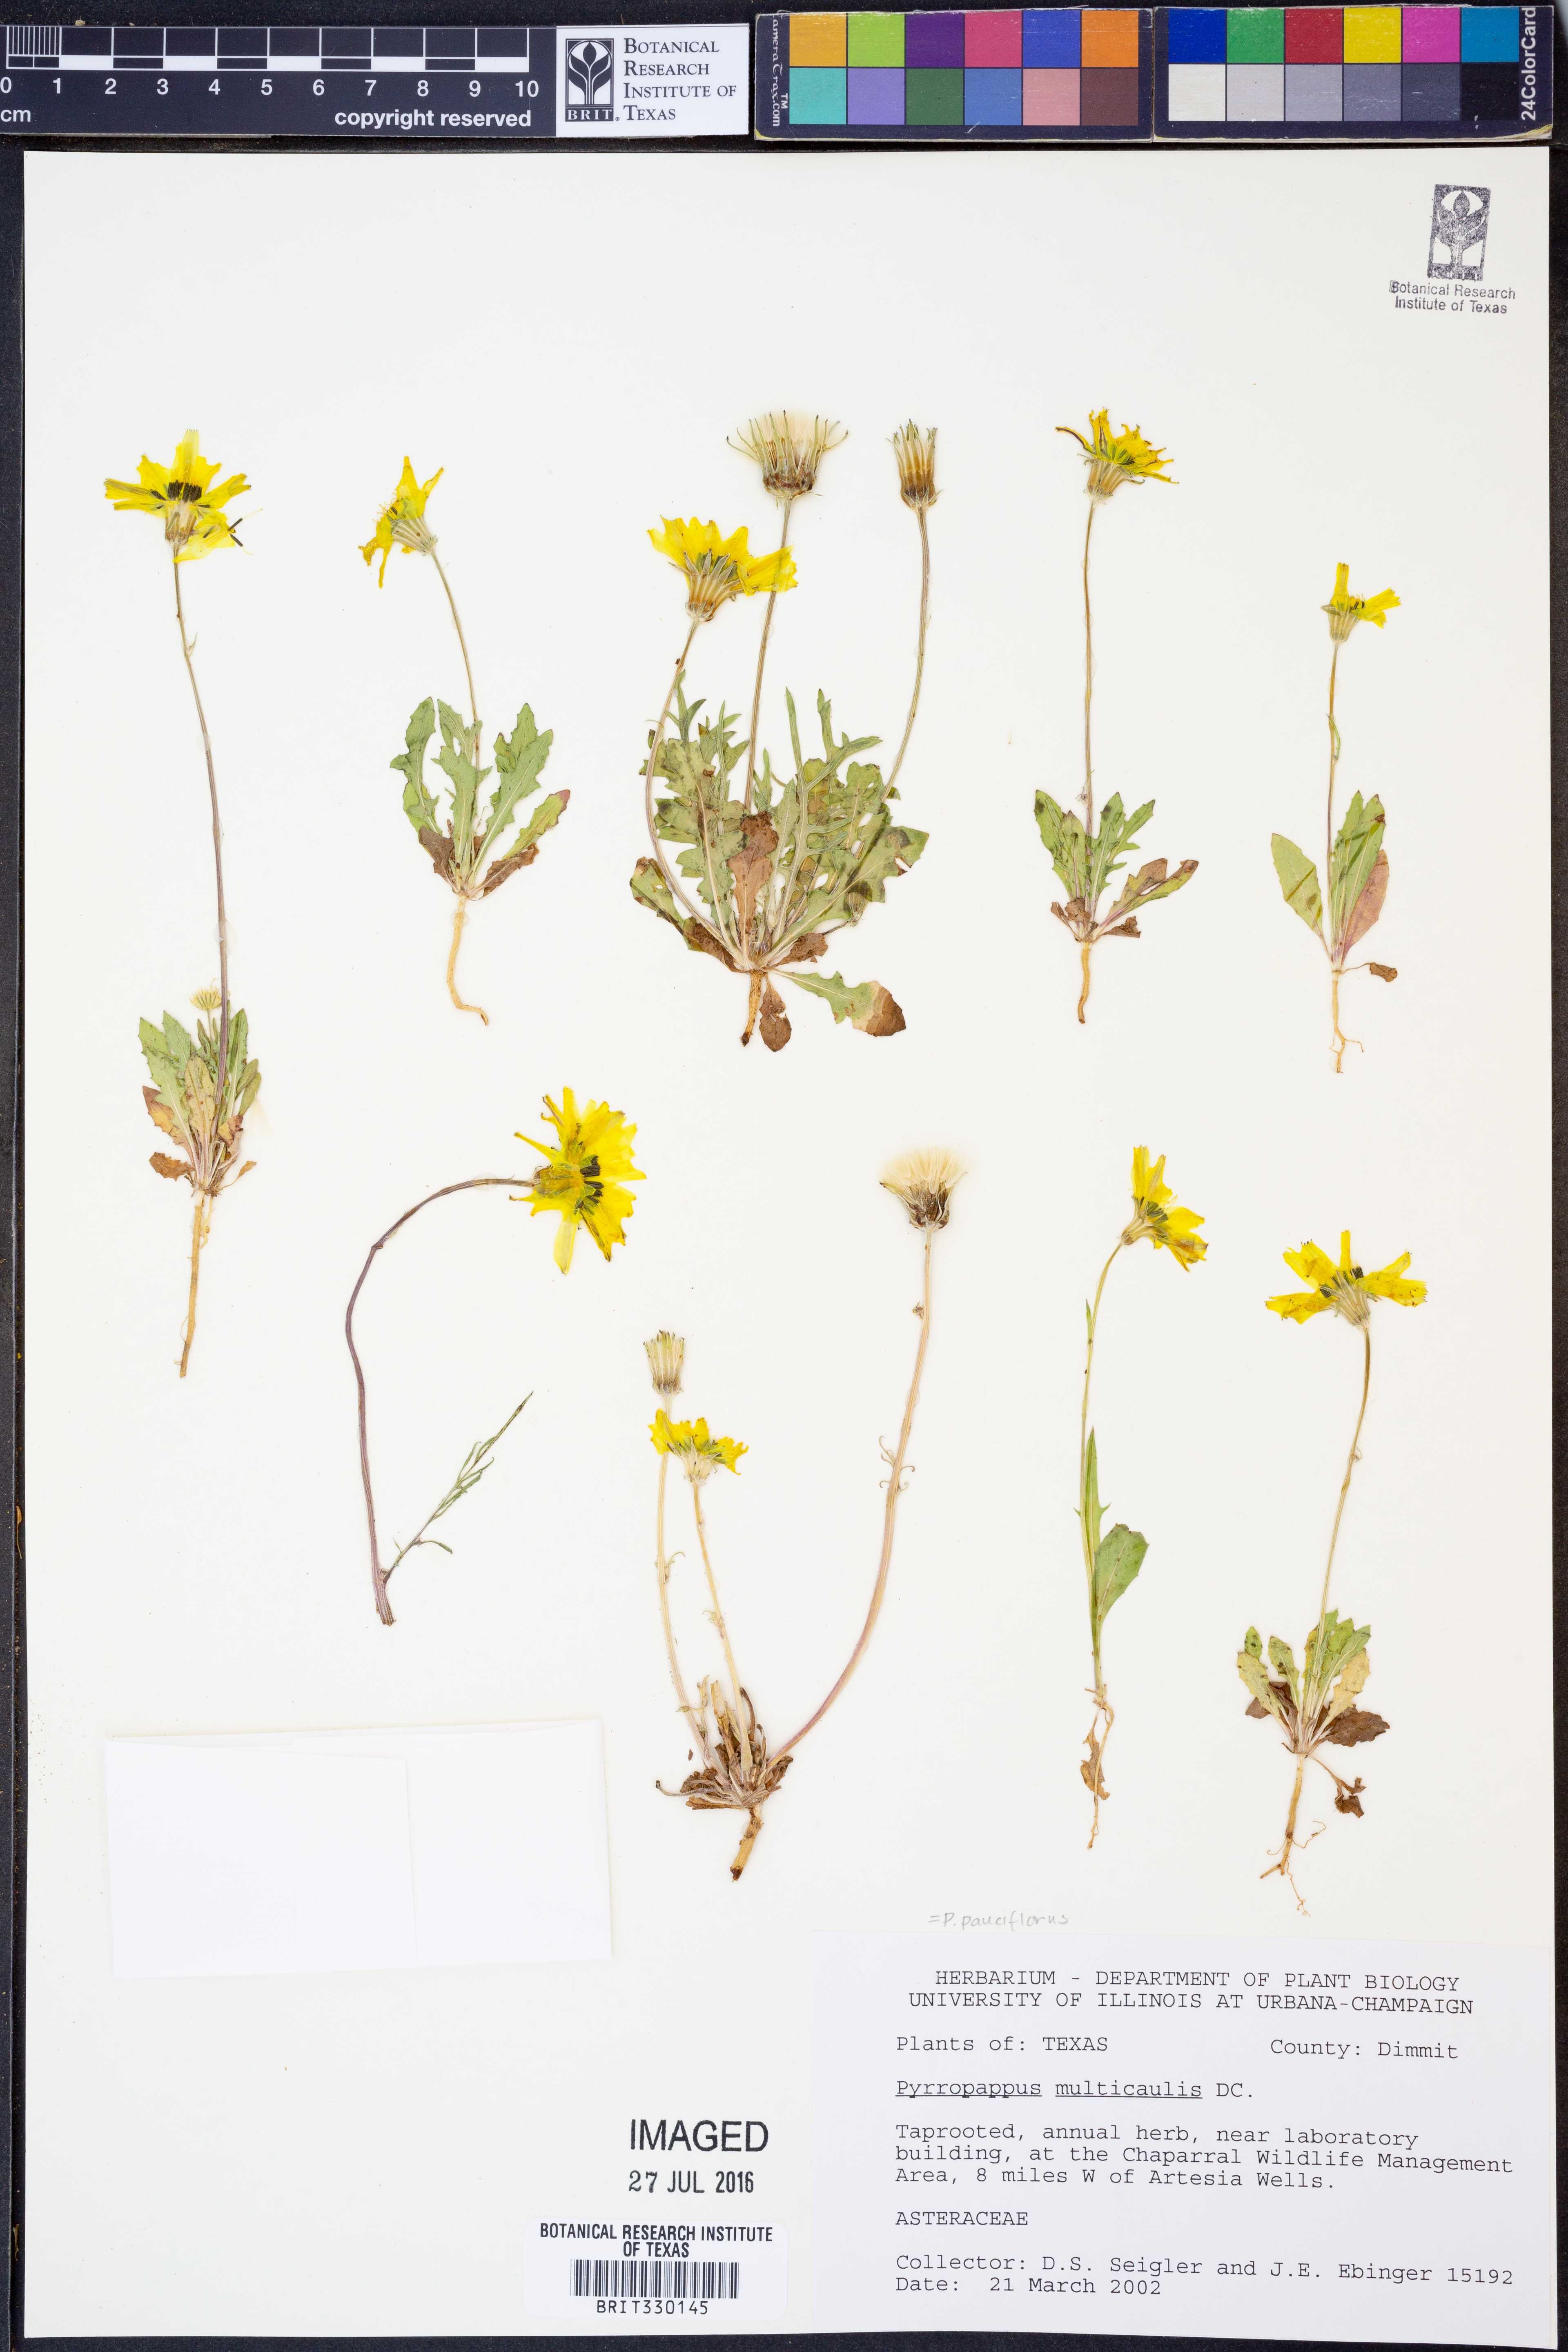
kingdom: Plantae
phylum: Tracheophyta
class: Magnoliopsida
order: Asterales
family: Asteraceae
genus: Pyrrhopappus
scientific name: Pyrrhopappus pauciflorus
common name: Texas false dandelion
